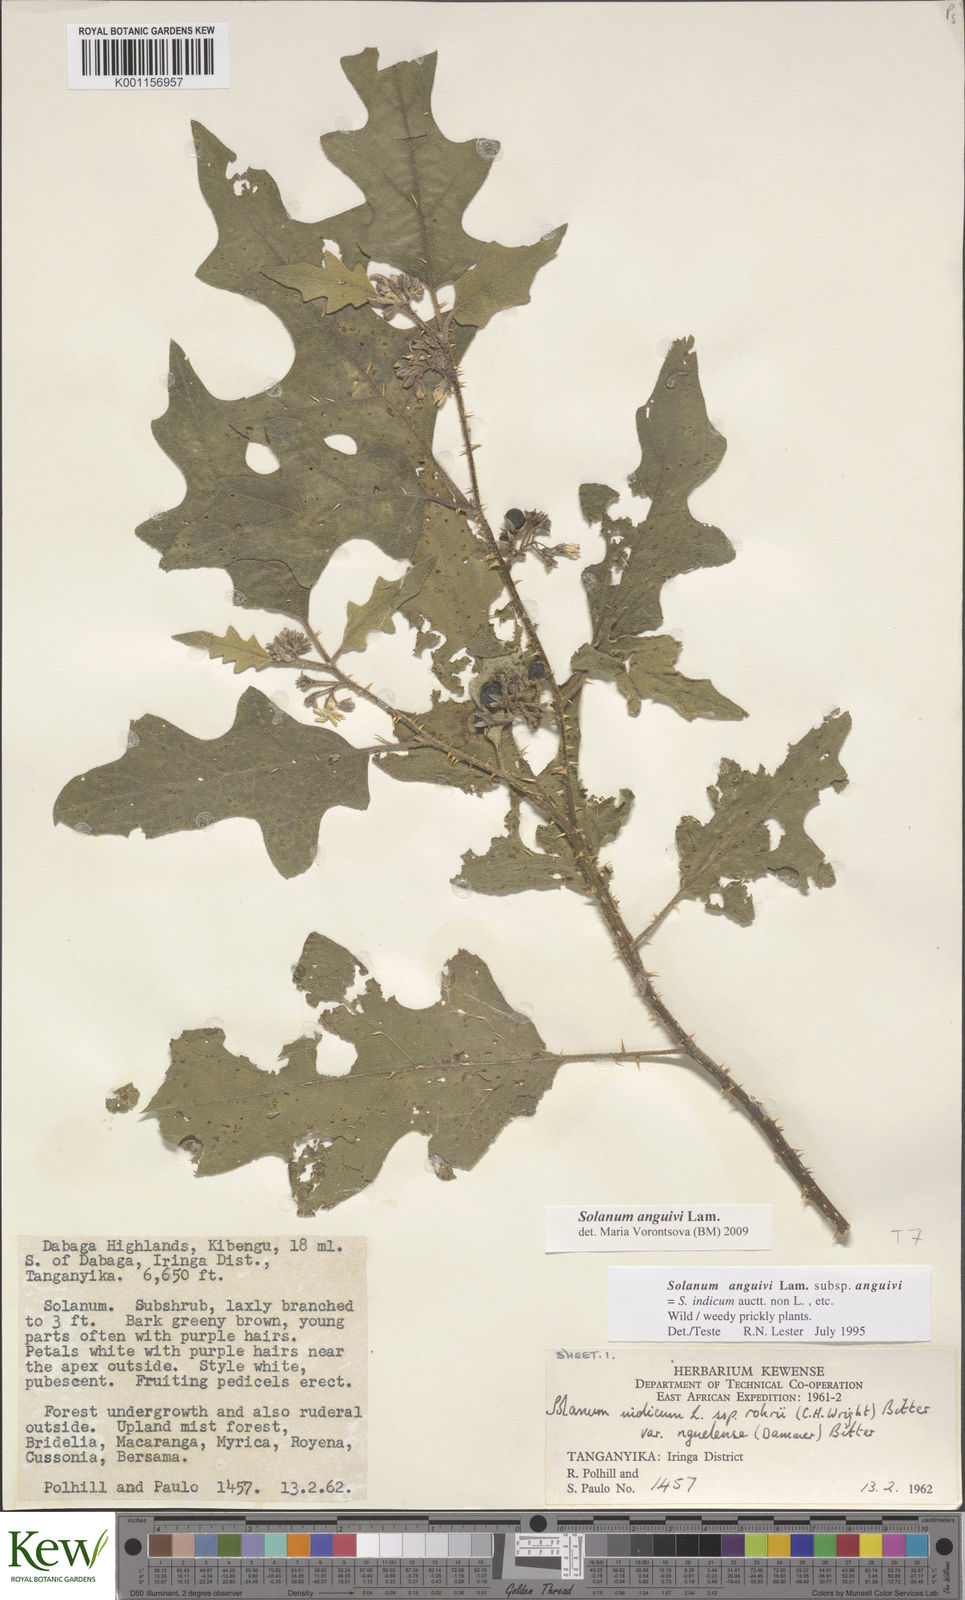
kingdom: Plantae
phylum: Tracheophyta
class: Magnoliopsida
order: Solanales
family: Solanaceae
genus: Solanum
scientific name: Solanum anguivi
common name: Forest bitterberry
